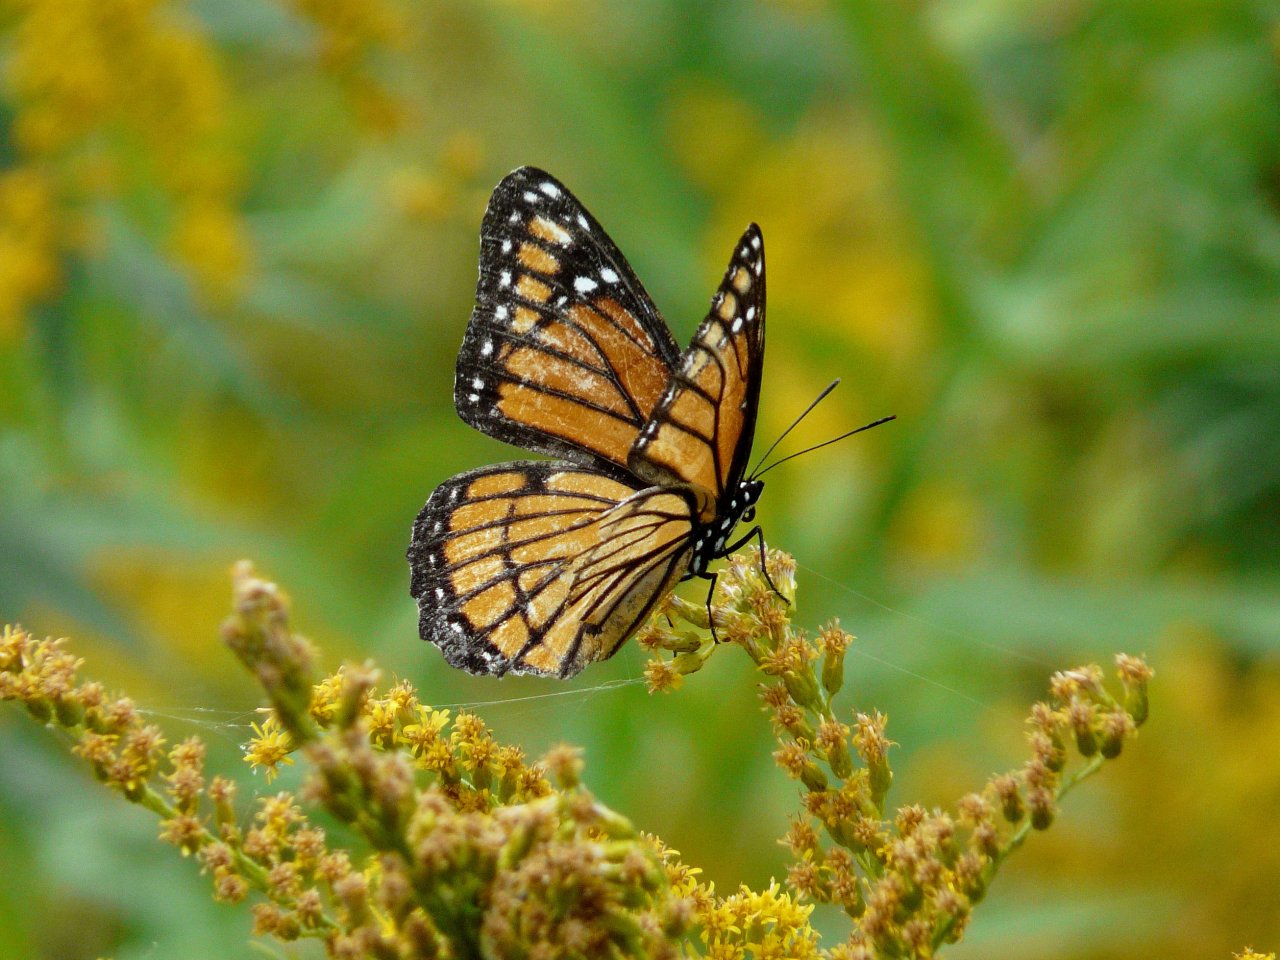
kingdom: Animalia
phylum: Arthropoda
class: Insecta
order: Lepidoptera
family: Nymphalidae
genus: Limenitis
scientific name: Limenitis archippus
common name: Viceroy
